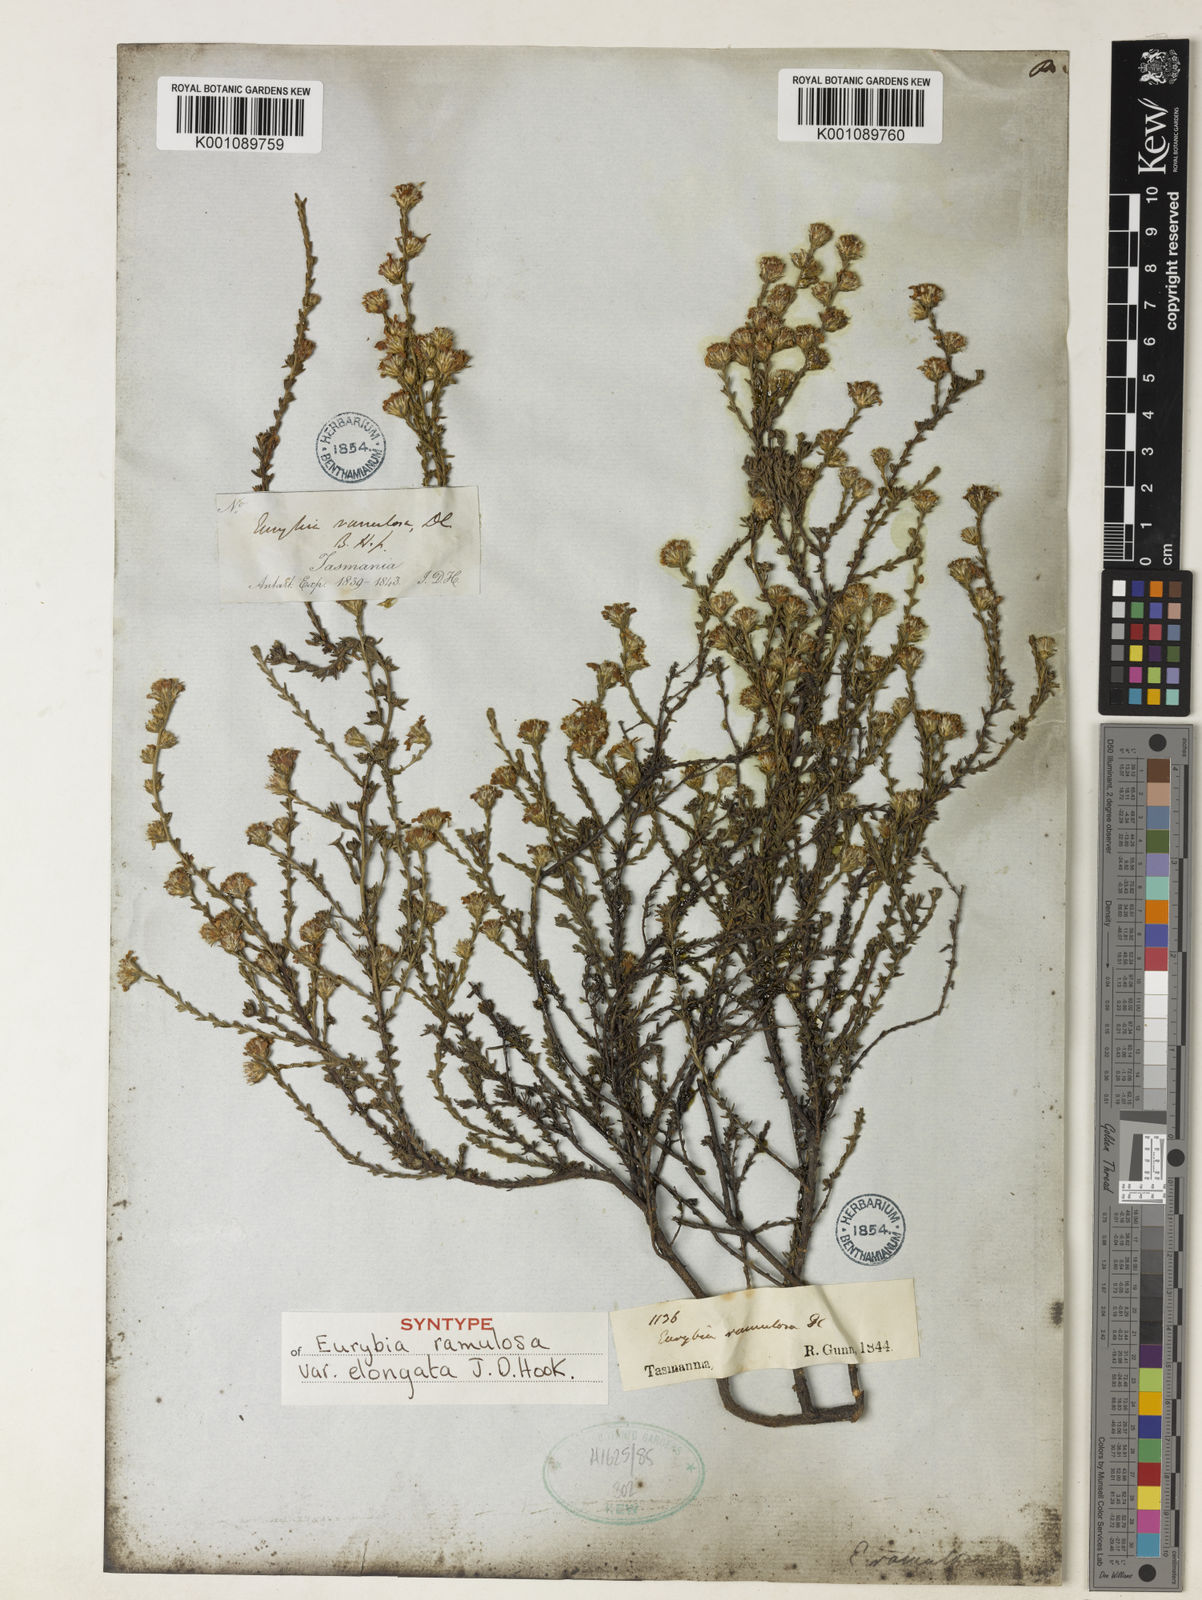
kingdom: Plantae
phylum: Tracheophyta
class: Magnoliopsida
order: Asterales
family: Asteraceae
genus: Olearia
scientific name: Olearia ramulosa
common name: Twiggy daisybush
